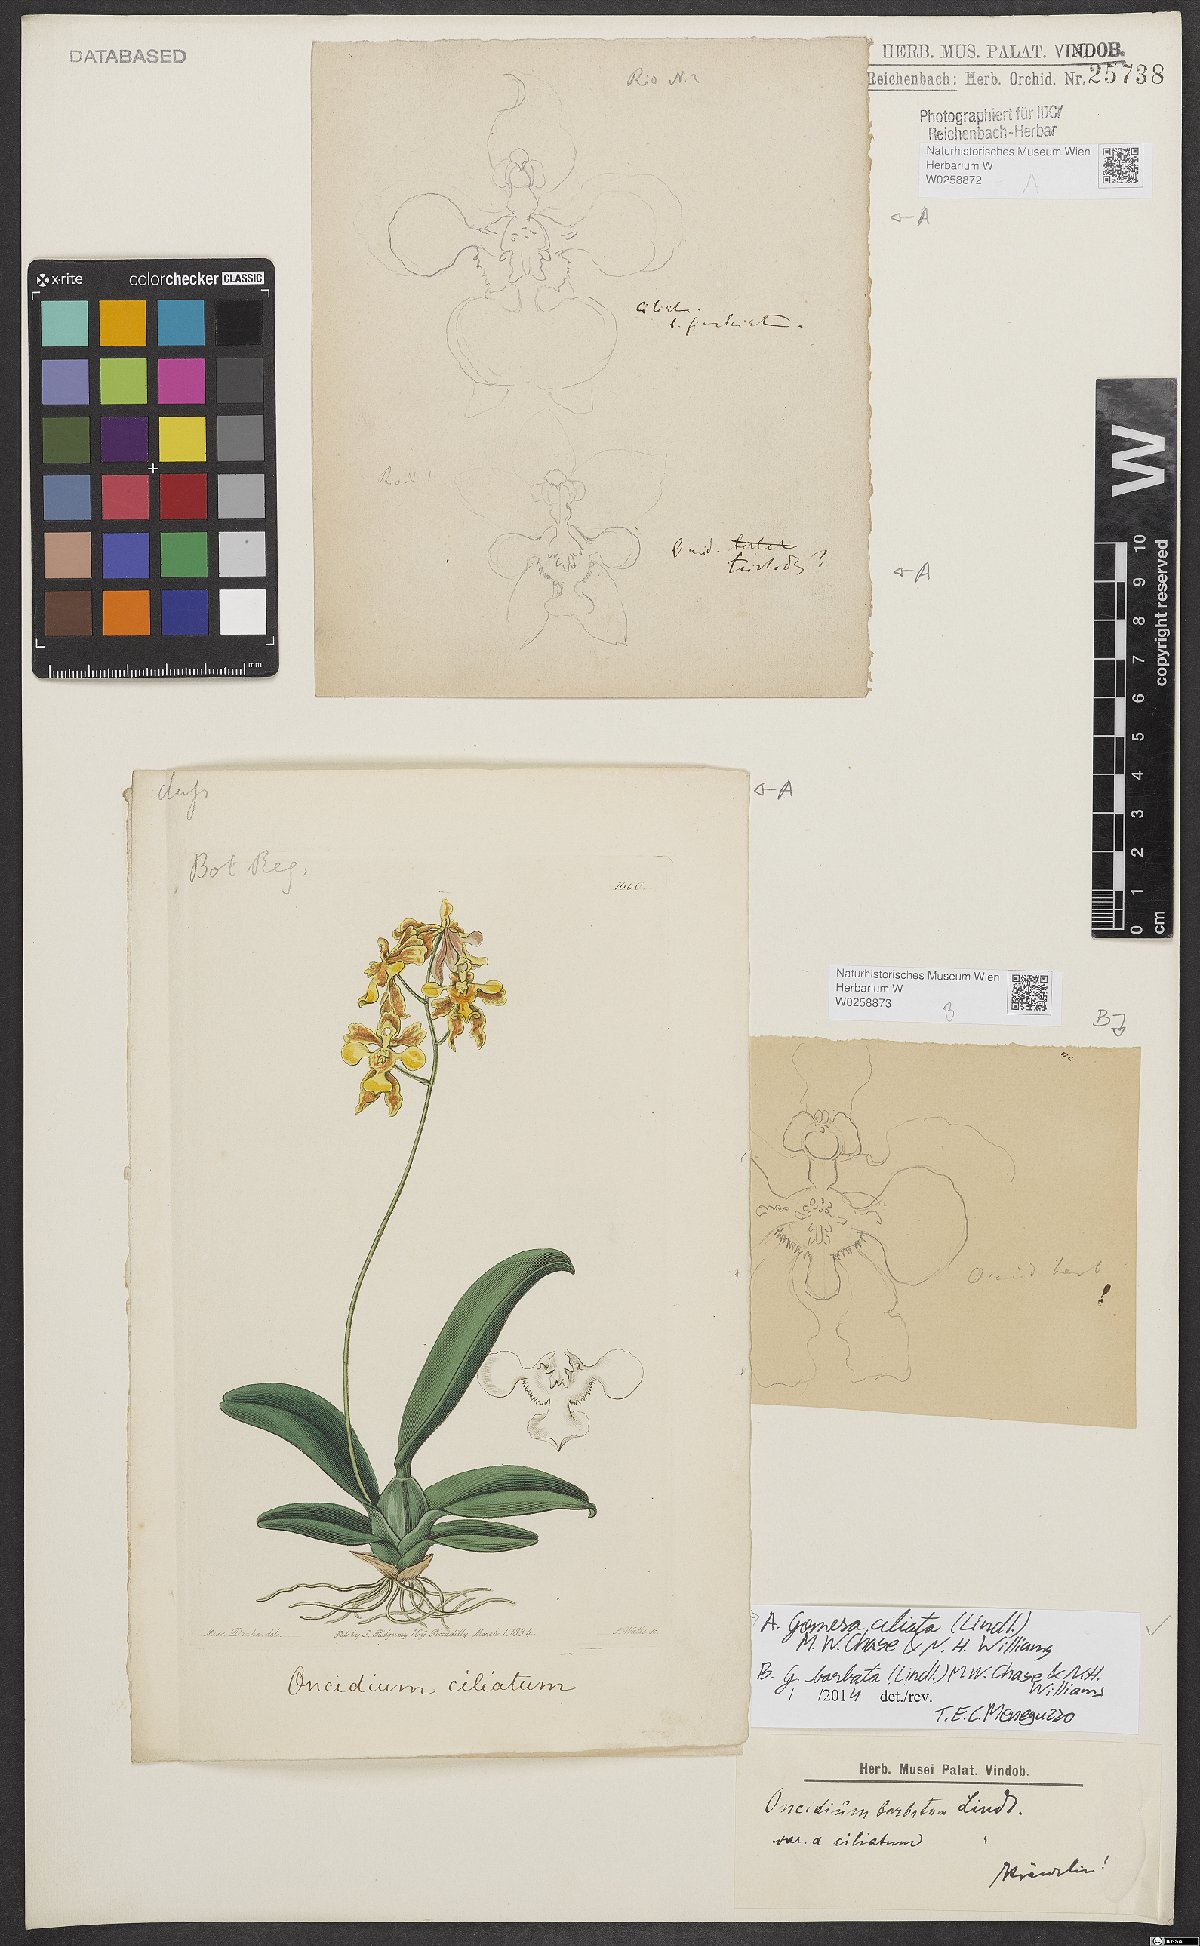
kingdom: Plantae
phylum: Tracheophyta
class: Liliopsida
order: Asparagales
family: Orchidaceae
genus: Gomesa
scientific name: Gomesa ciliata
